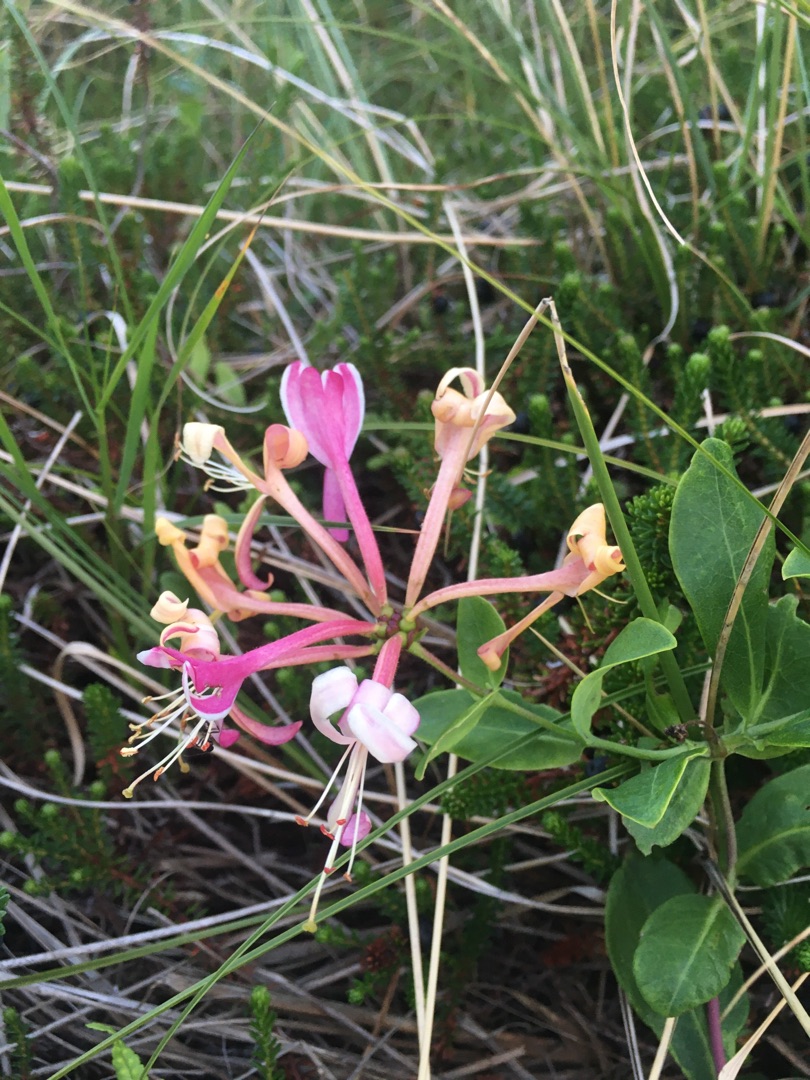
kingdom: Plantae
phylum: Tracheophyta
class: Magnoliopsida
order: Dipsacales
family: Caprifoliaceae
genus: Lonicera
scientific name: Lonicera periclymenum
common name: Almindelig gedeblad
